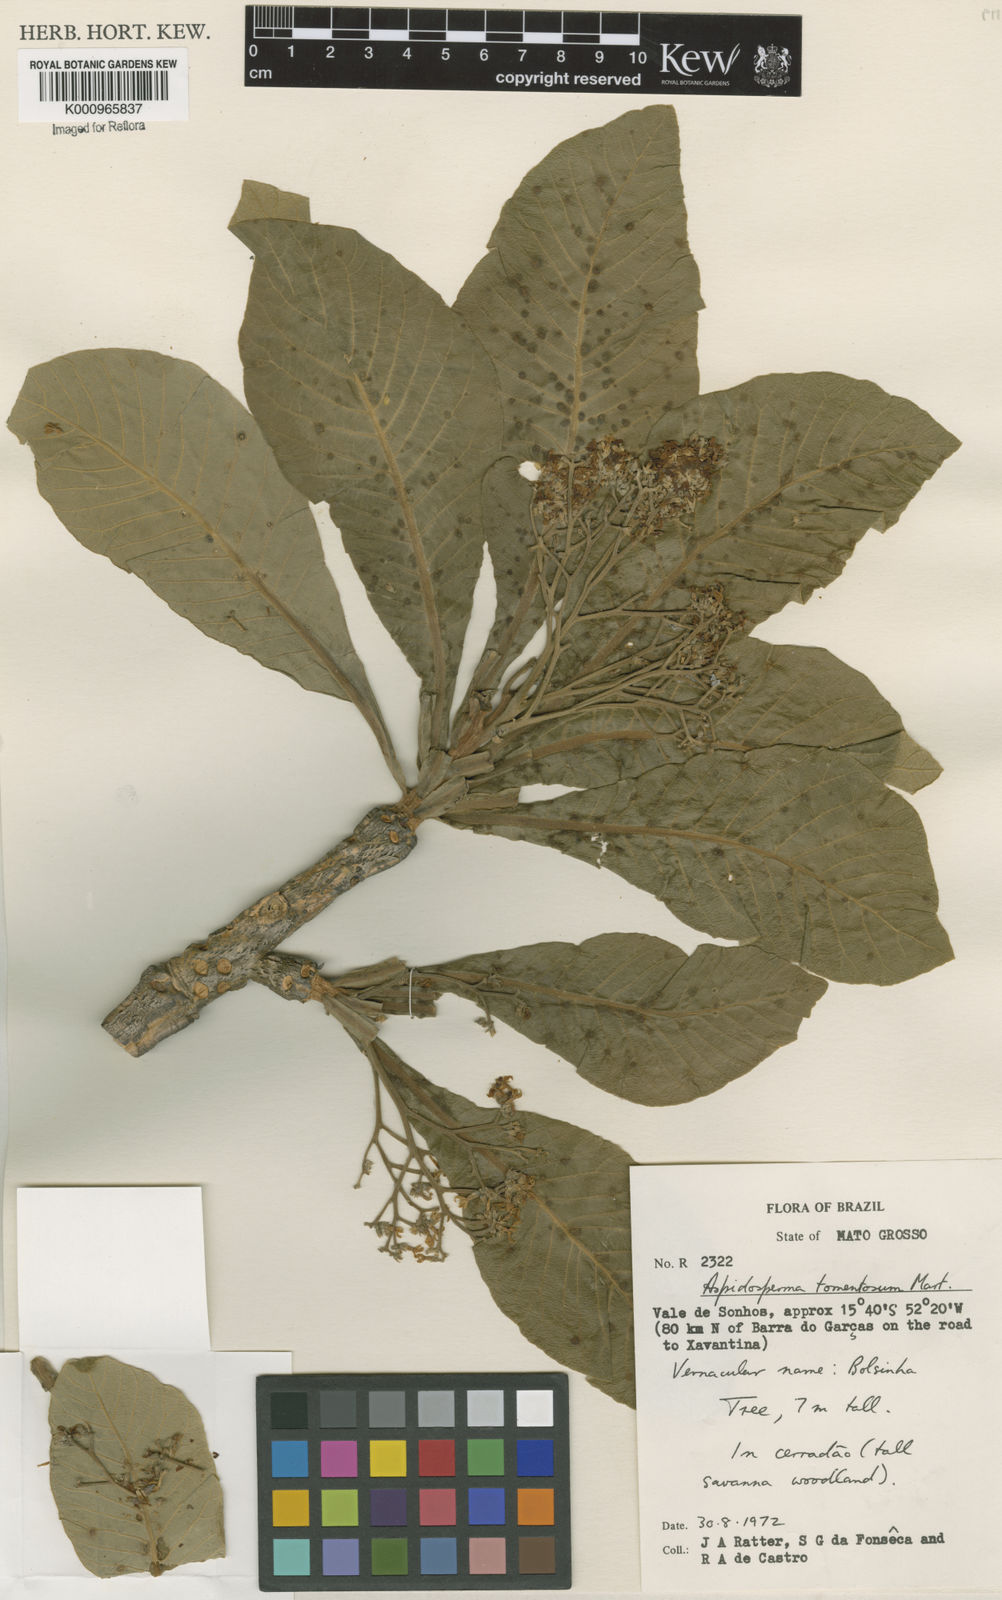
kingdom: Plantae
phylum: Tracheophyta
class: Magnoliopsida
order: Gentianales
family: Apocynaceae
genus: Aspidosperma
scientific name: Aspidosperma tomentosum
